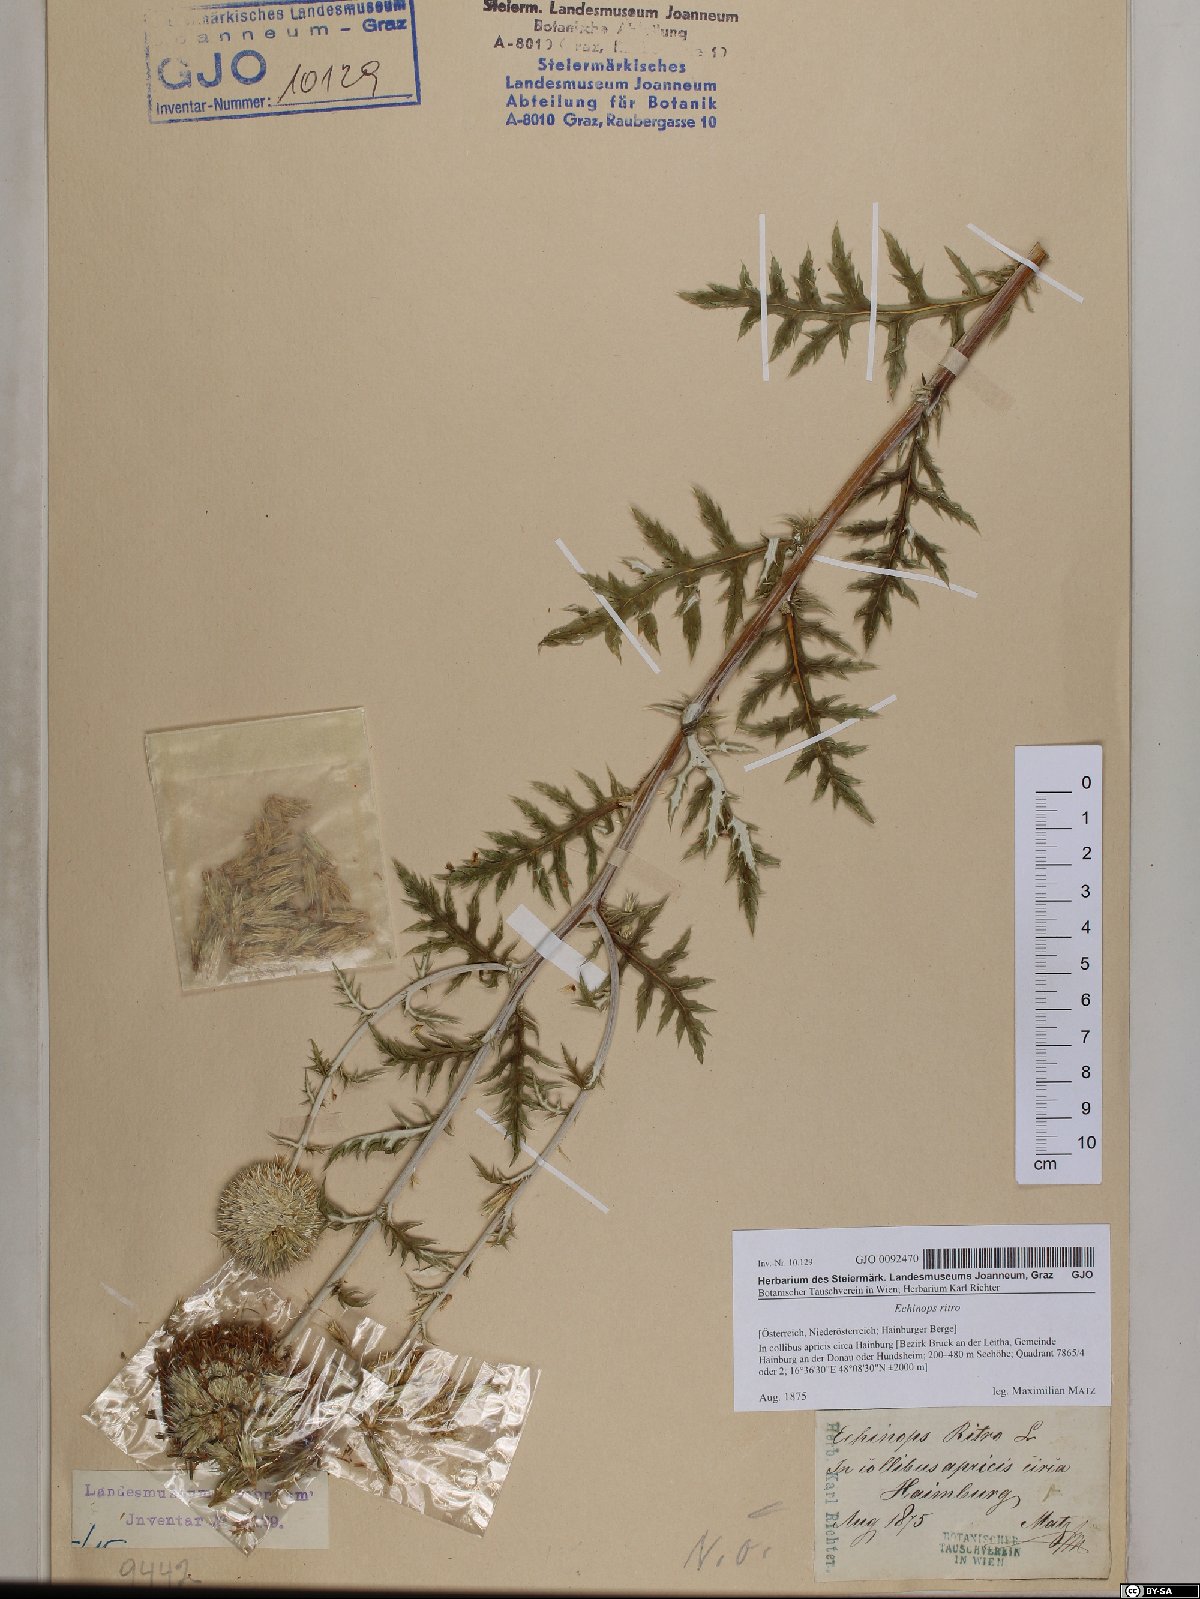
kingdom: Plantae
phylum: Tracheophyta
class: Magnoliopsida
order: Asterales
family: Asteraceae
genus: Echinops
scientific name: Echinops ritro
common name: Globe thistle
